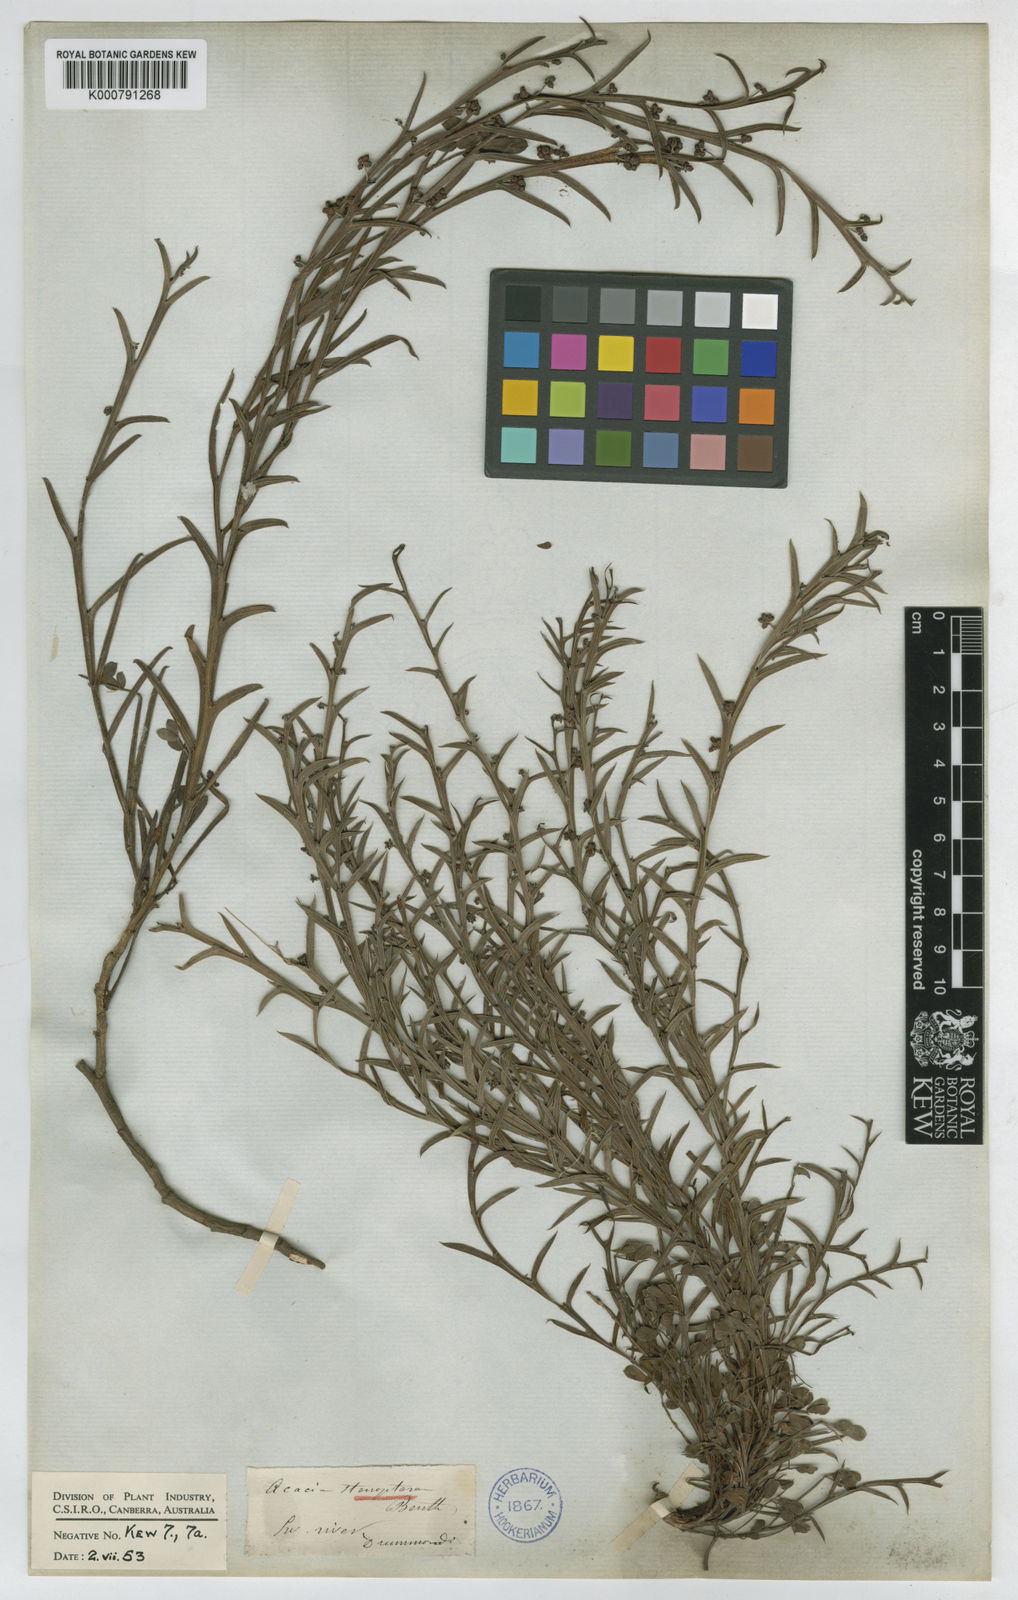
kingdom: Plantae
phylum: Tracheophyta
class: Magnoliopsida
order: Fabales
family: Fabaceae
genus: Acacia
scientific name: Acacia stenoptera
